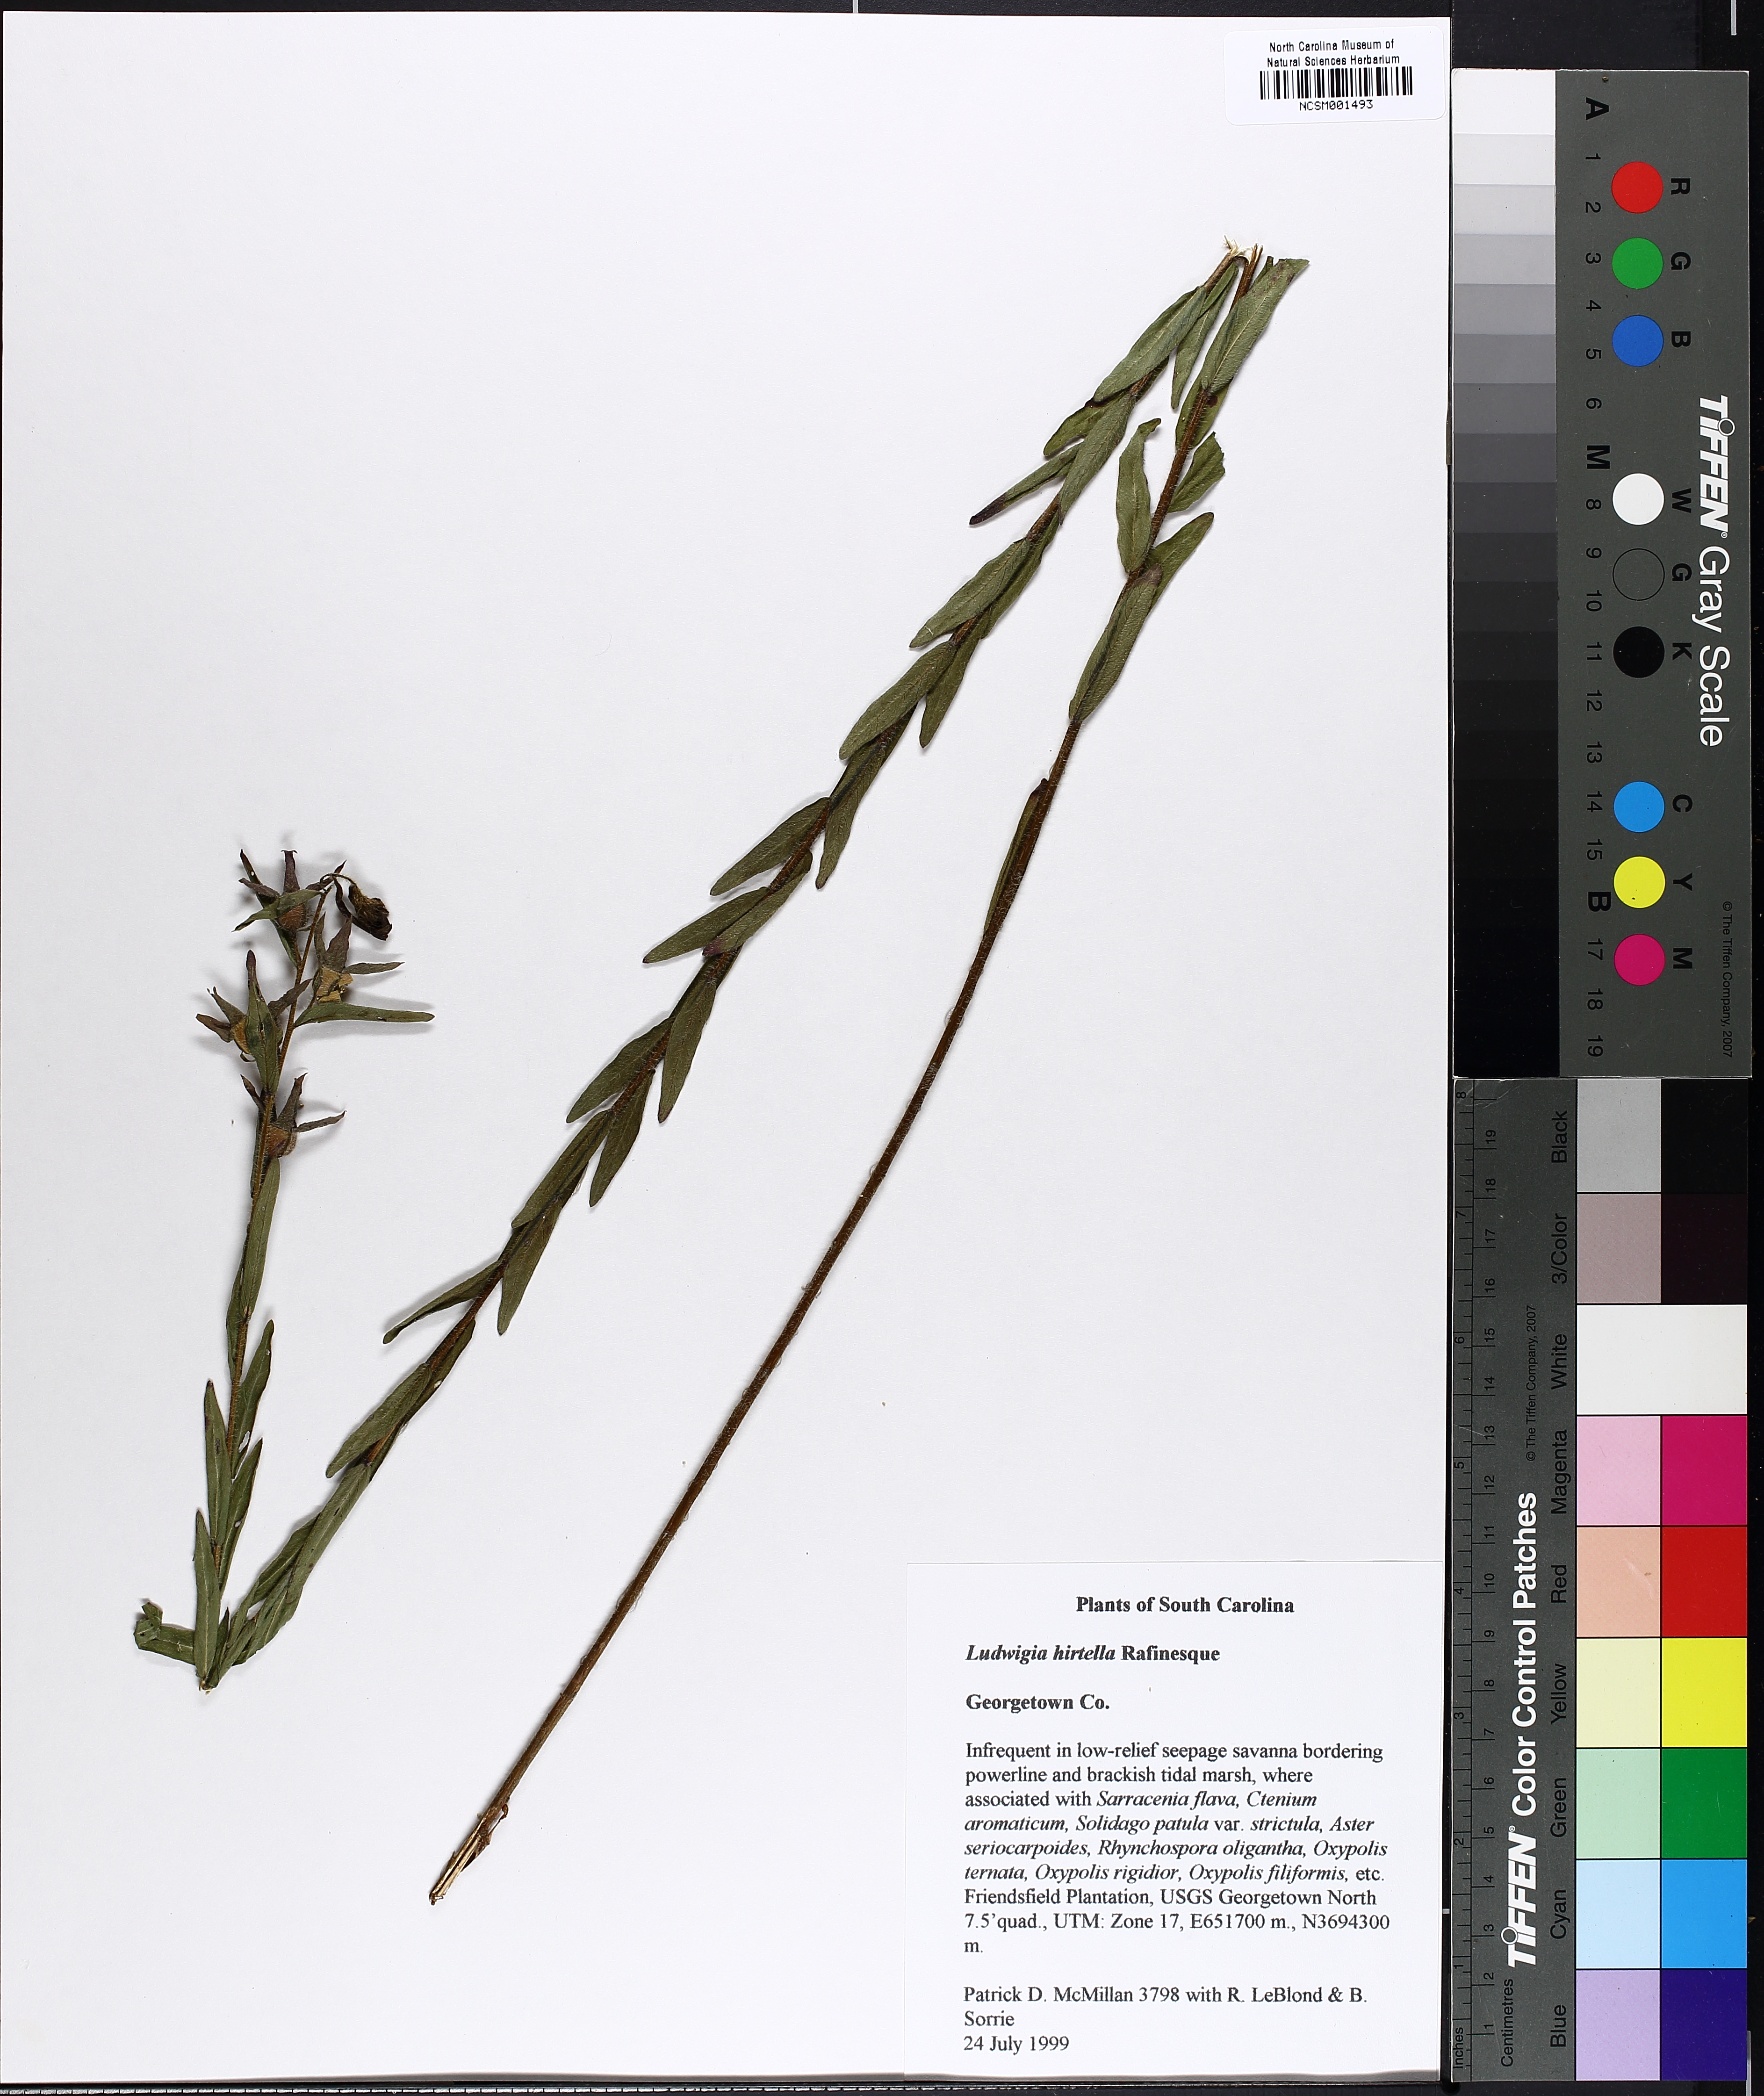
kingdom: Plantae
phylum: Tracheophyta
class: Magnoliopsida
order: Myrtales
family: Onagraceae
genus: Ludwigia
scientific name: Ludwigia hirtella
